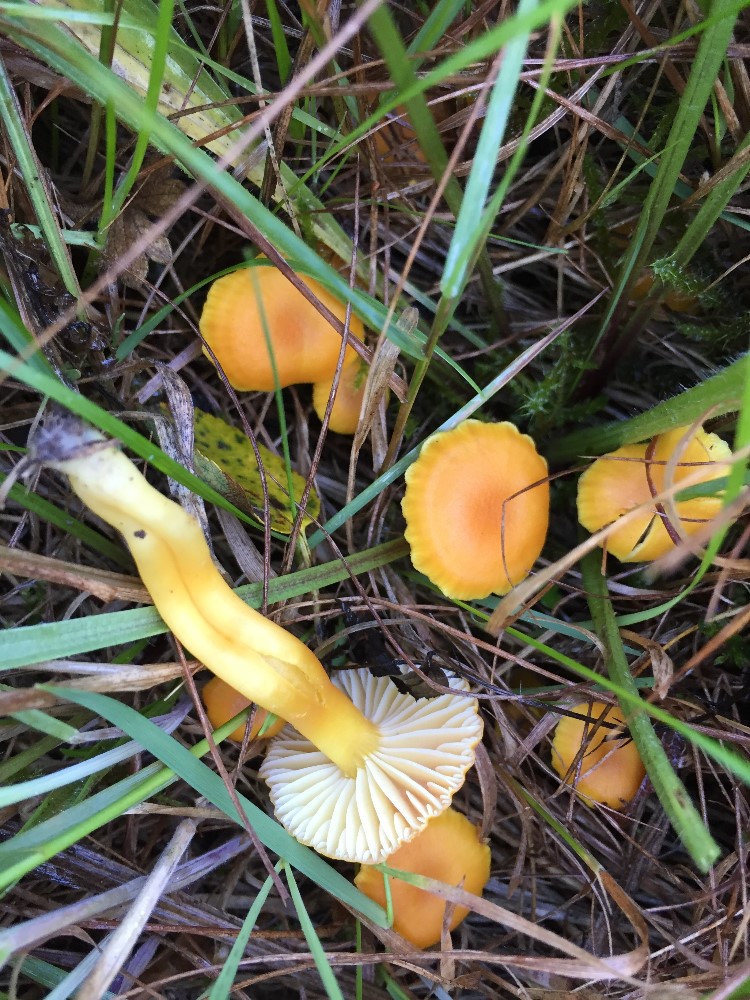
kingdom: Fungi
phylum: Basidiomycota
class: Agaricomycetes
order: Agaricales
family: Hygrophoraceae
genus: Hygrocybe
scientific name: Hygrocybe reidii
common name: honning-vokshat
